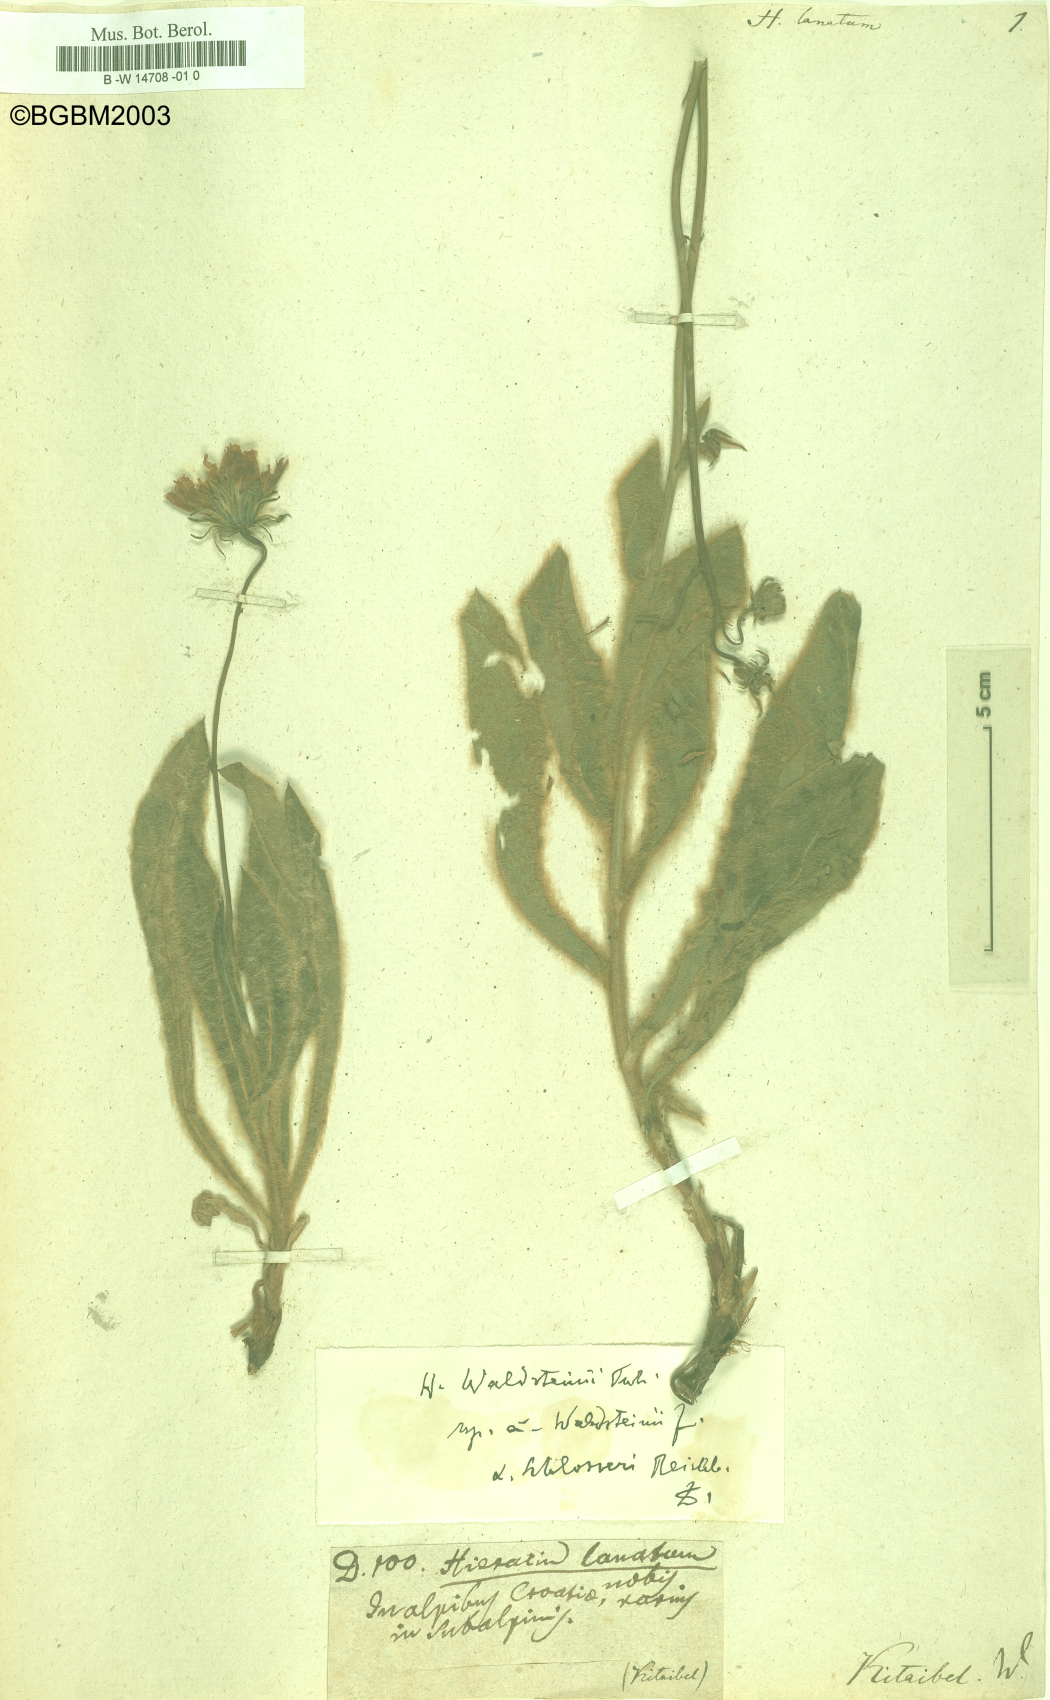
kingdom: Plantae
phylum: Tracheophyta
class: Magnoliopsida
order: Asterales
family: Asteraceae
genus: Hieracium
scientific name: Hieracium lanatum
